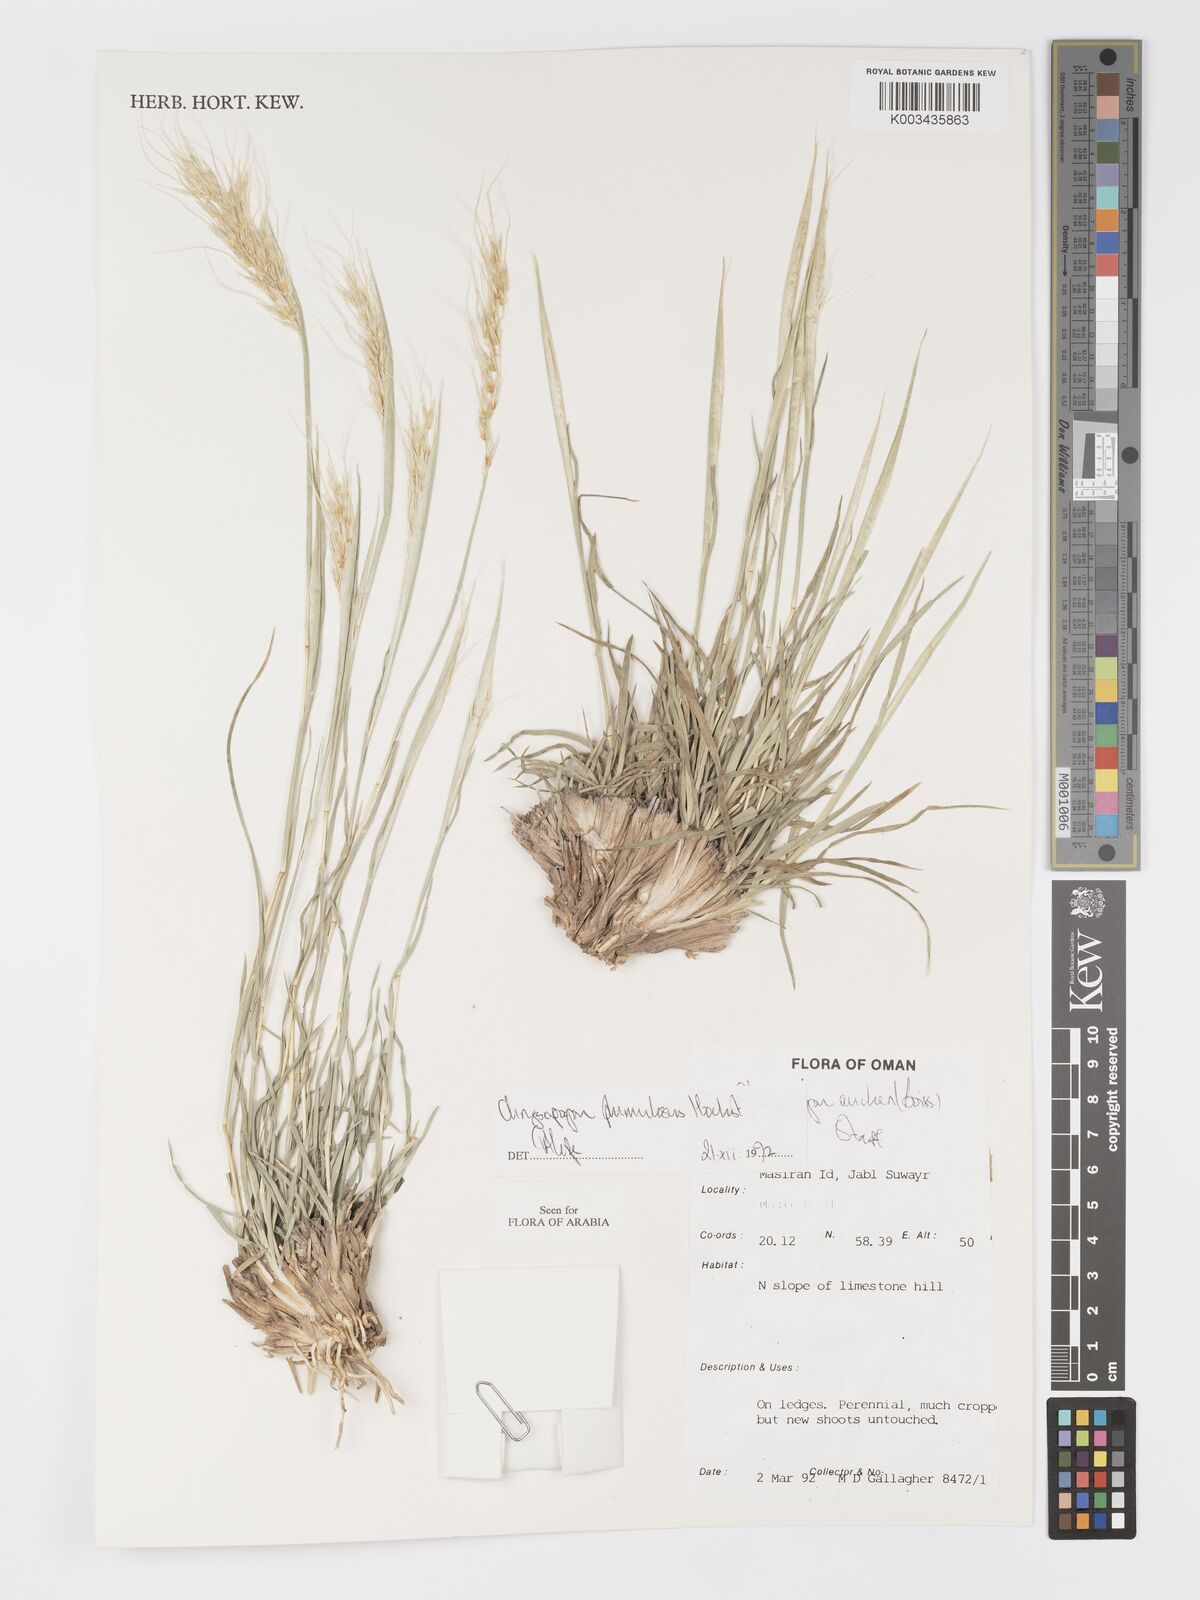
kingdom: Plantae
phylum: Tracheophyta
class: Liliopsida
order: Poales
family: Poaceae
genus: Chrysopogon
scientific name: Chrysopogon plumulosus
